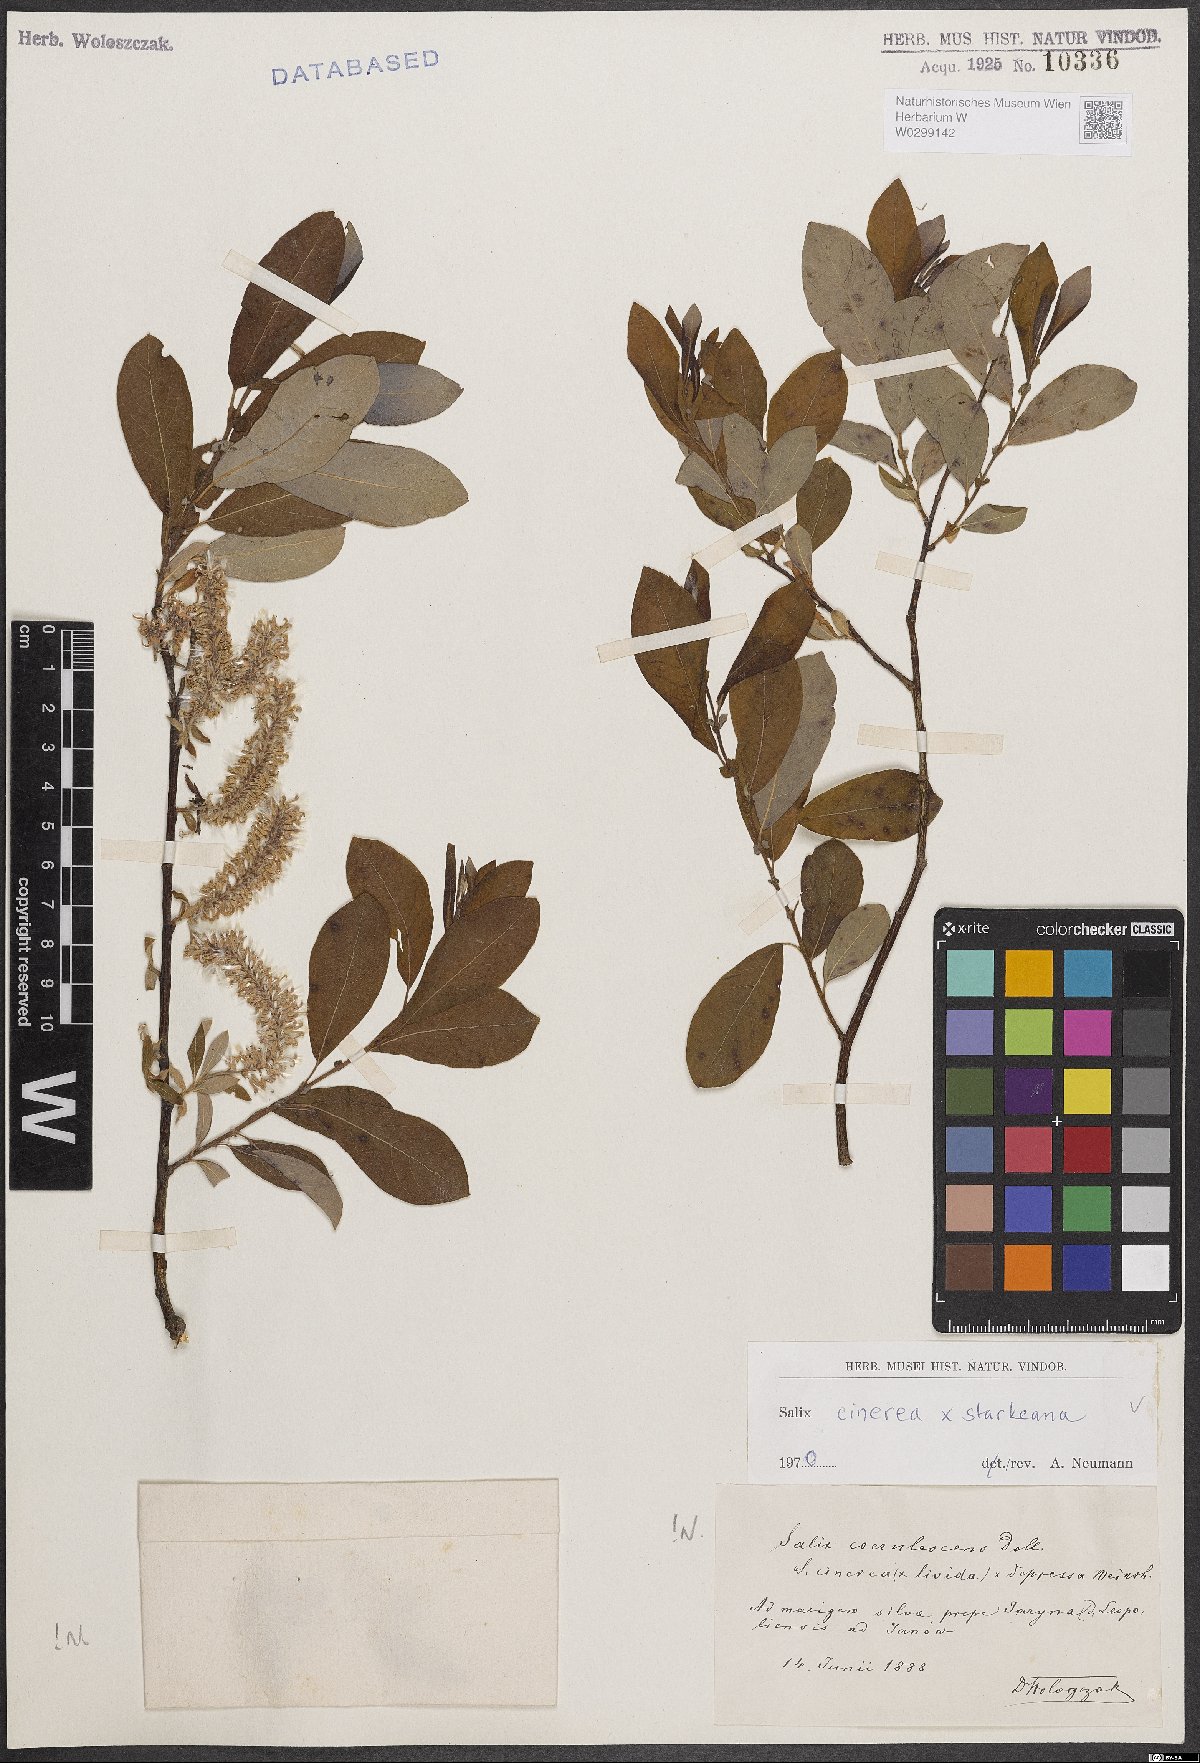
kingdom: Plantae
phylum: Tracheophyta
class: Magnoliopsida
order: Malpighiales
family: Salicaceae
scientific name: Salicaceae
